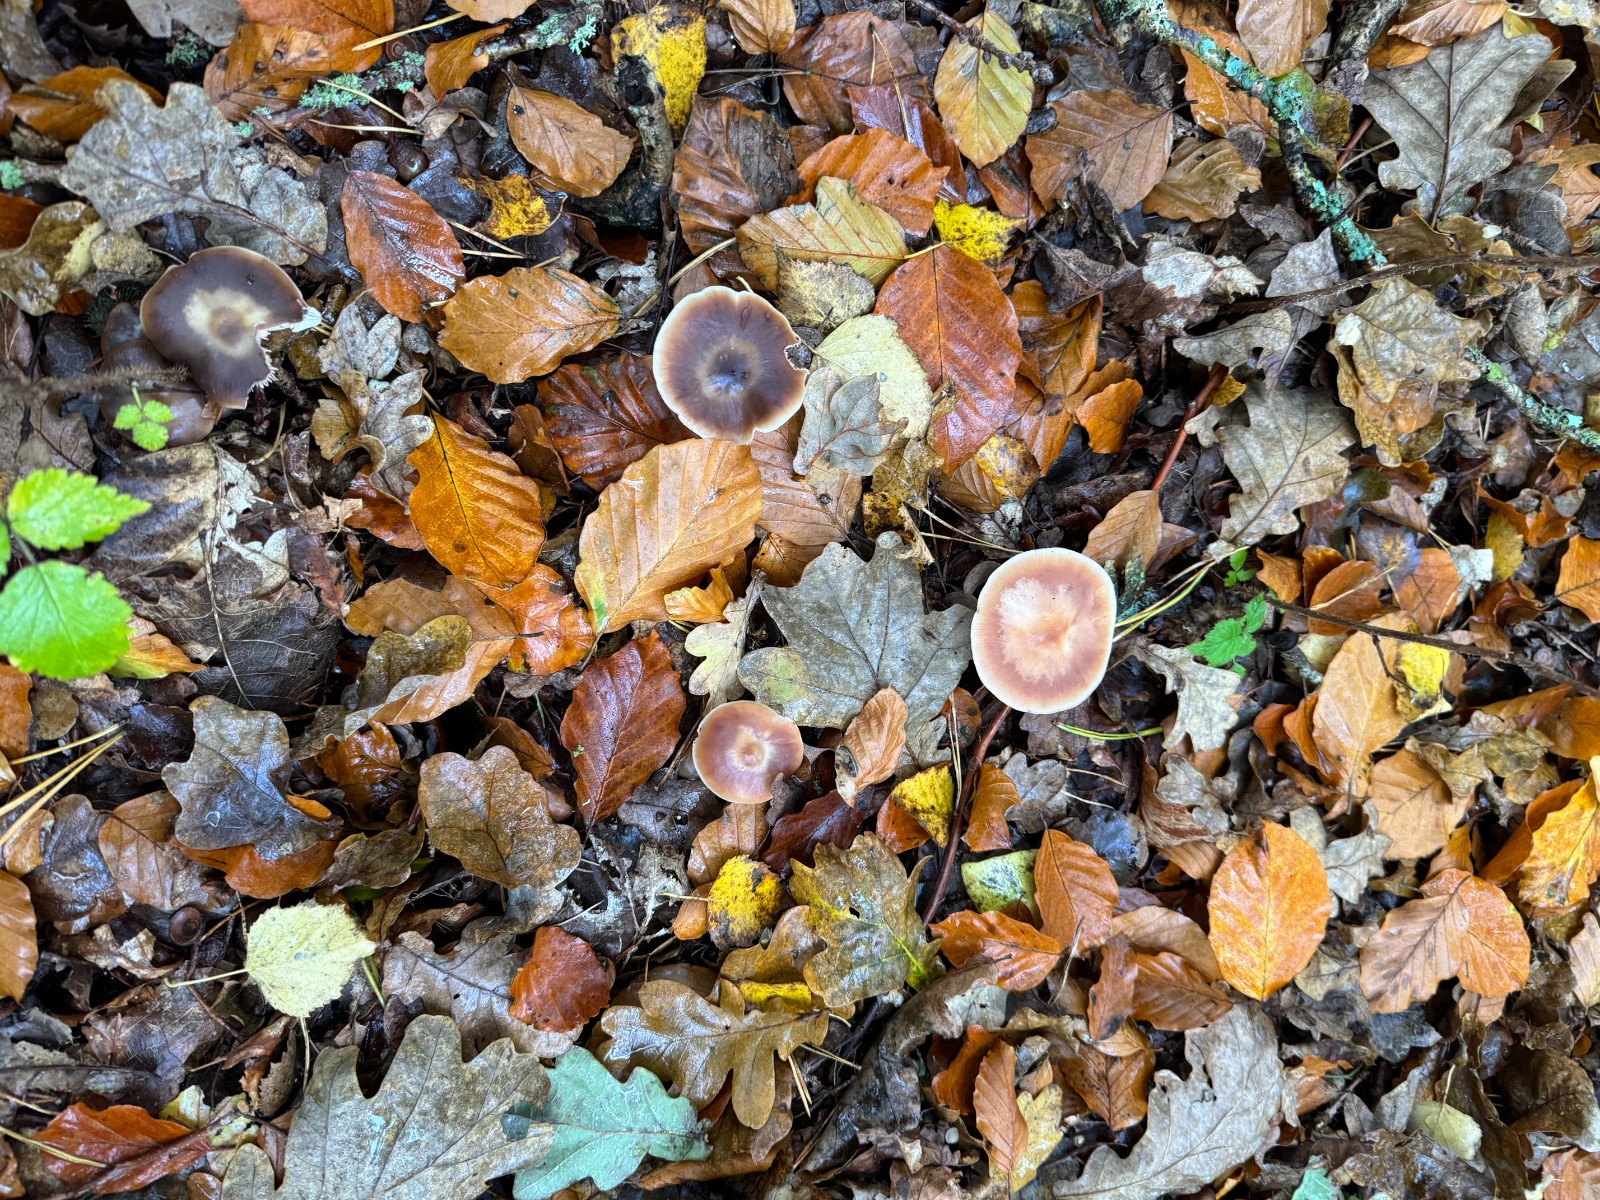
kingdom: Fungi
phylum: Basidiomycota
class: Agaricomycetes
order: Agaricales
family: Omphalotaceae
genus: Rhodocollybia
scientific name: Rhodocollybia asema
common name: horngrå fladhat
